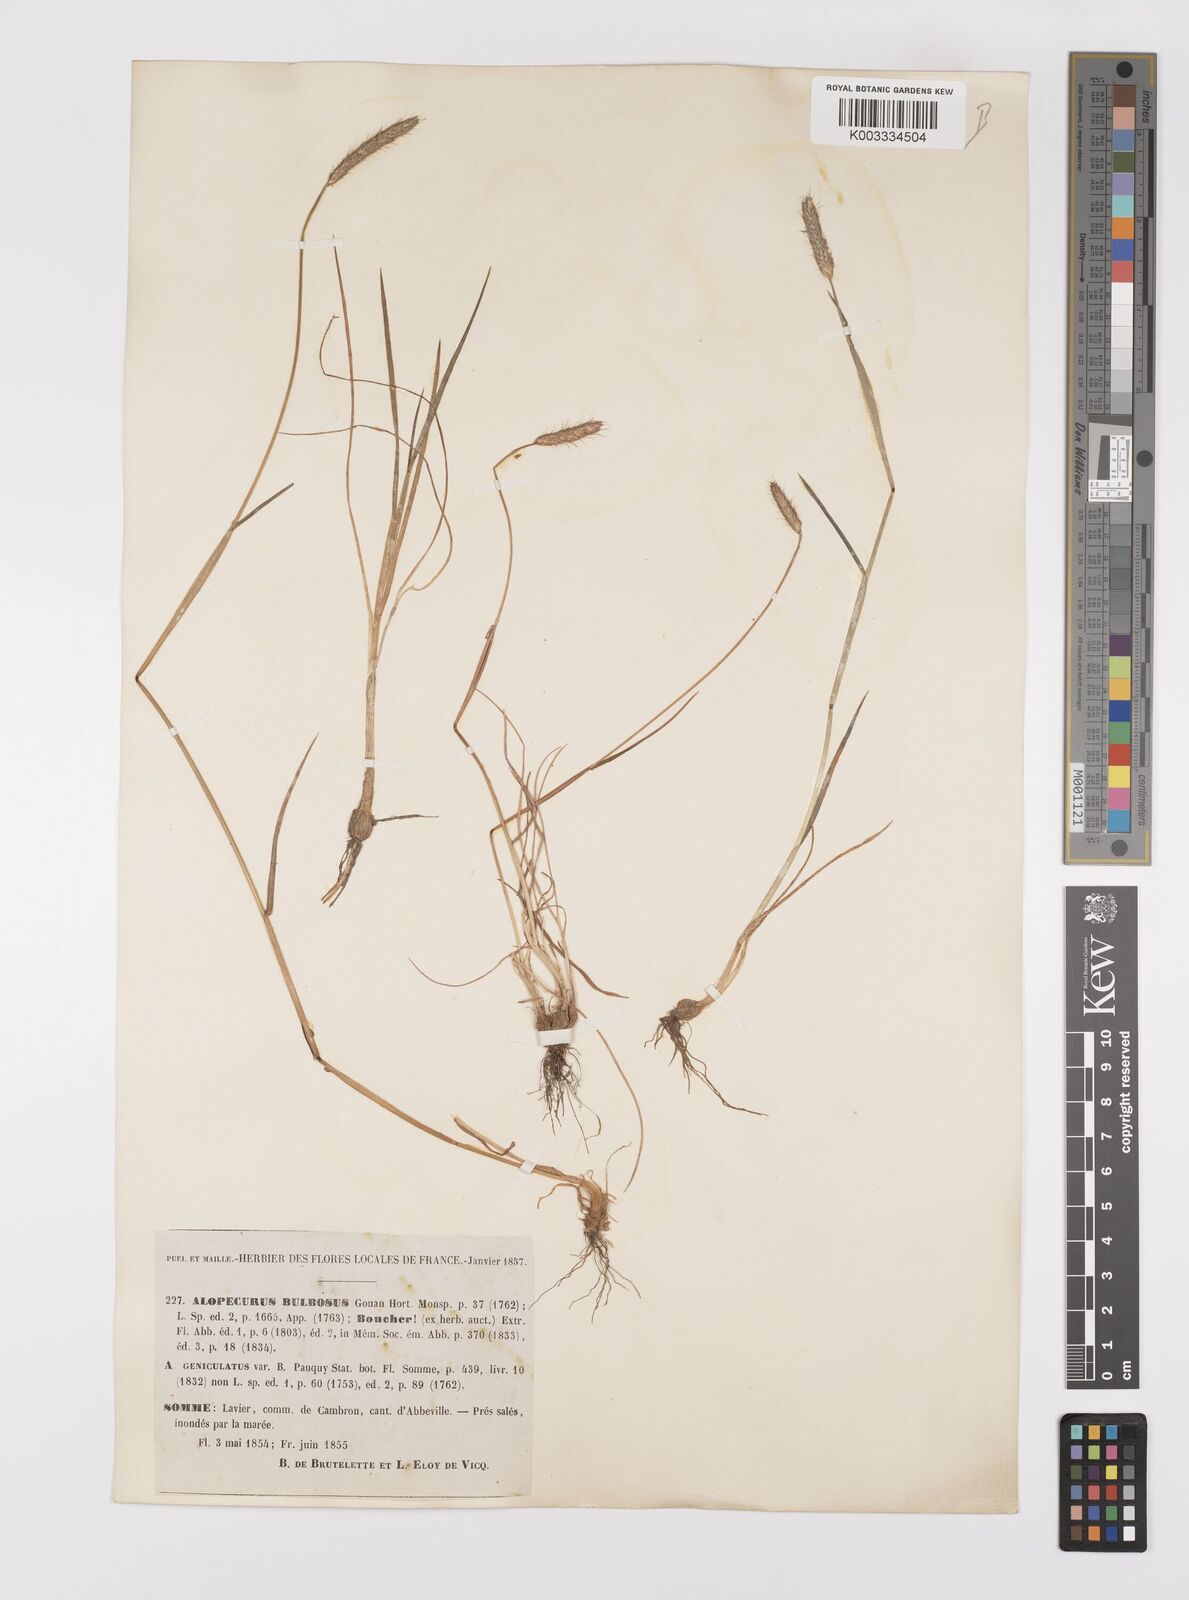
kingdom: Plantae
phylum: Tracheophyta
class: Liliopsida
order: Poales
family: Poaceae
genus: Alopecurus
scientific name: Alopecurus bulbosus
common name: Bulbous foxtail
